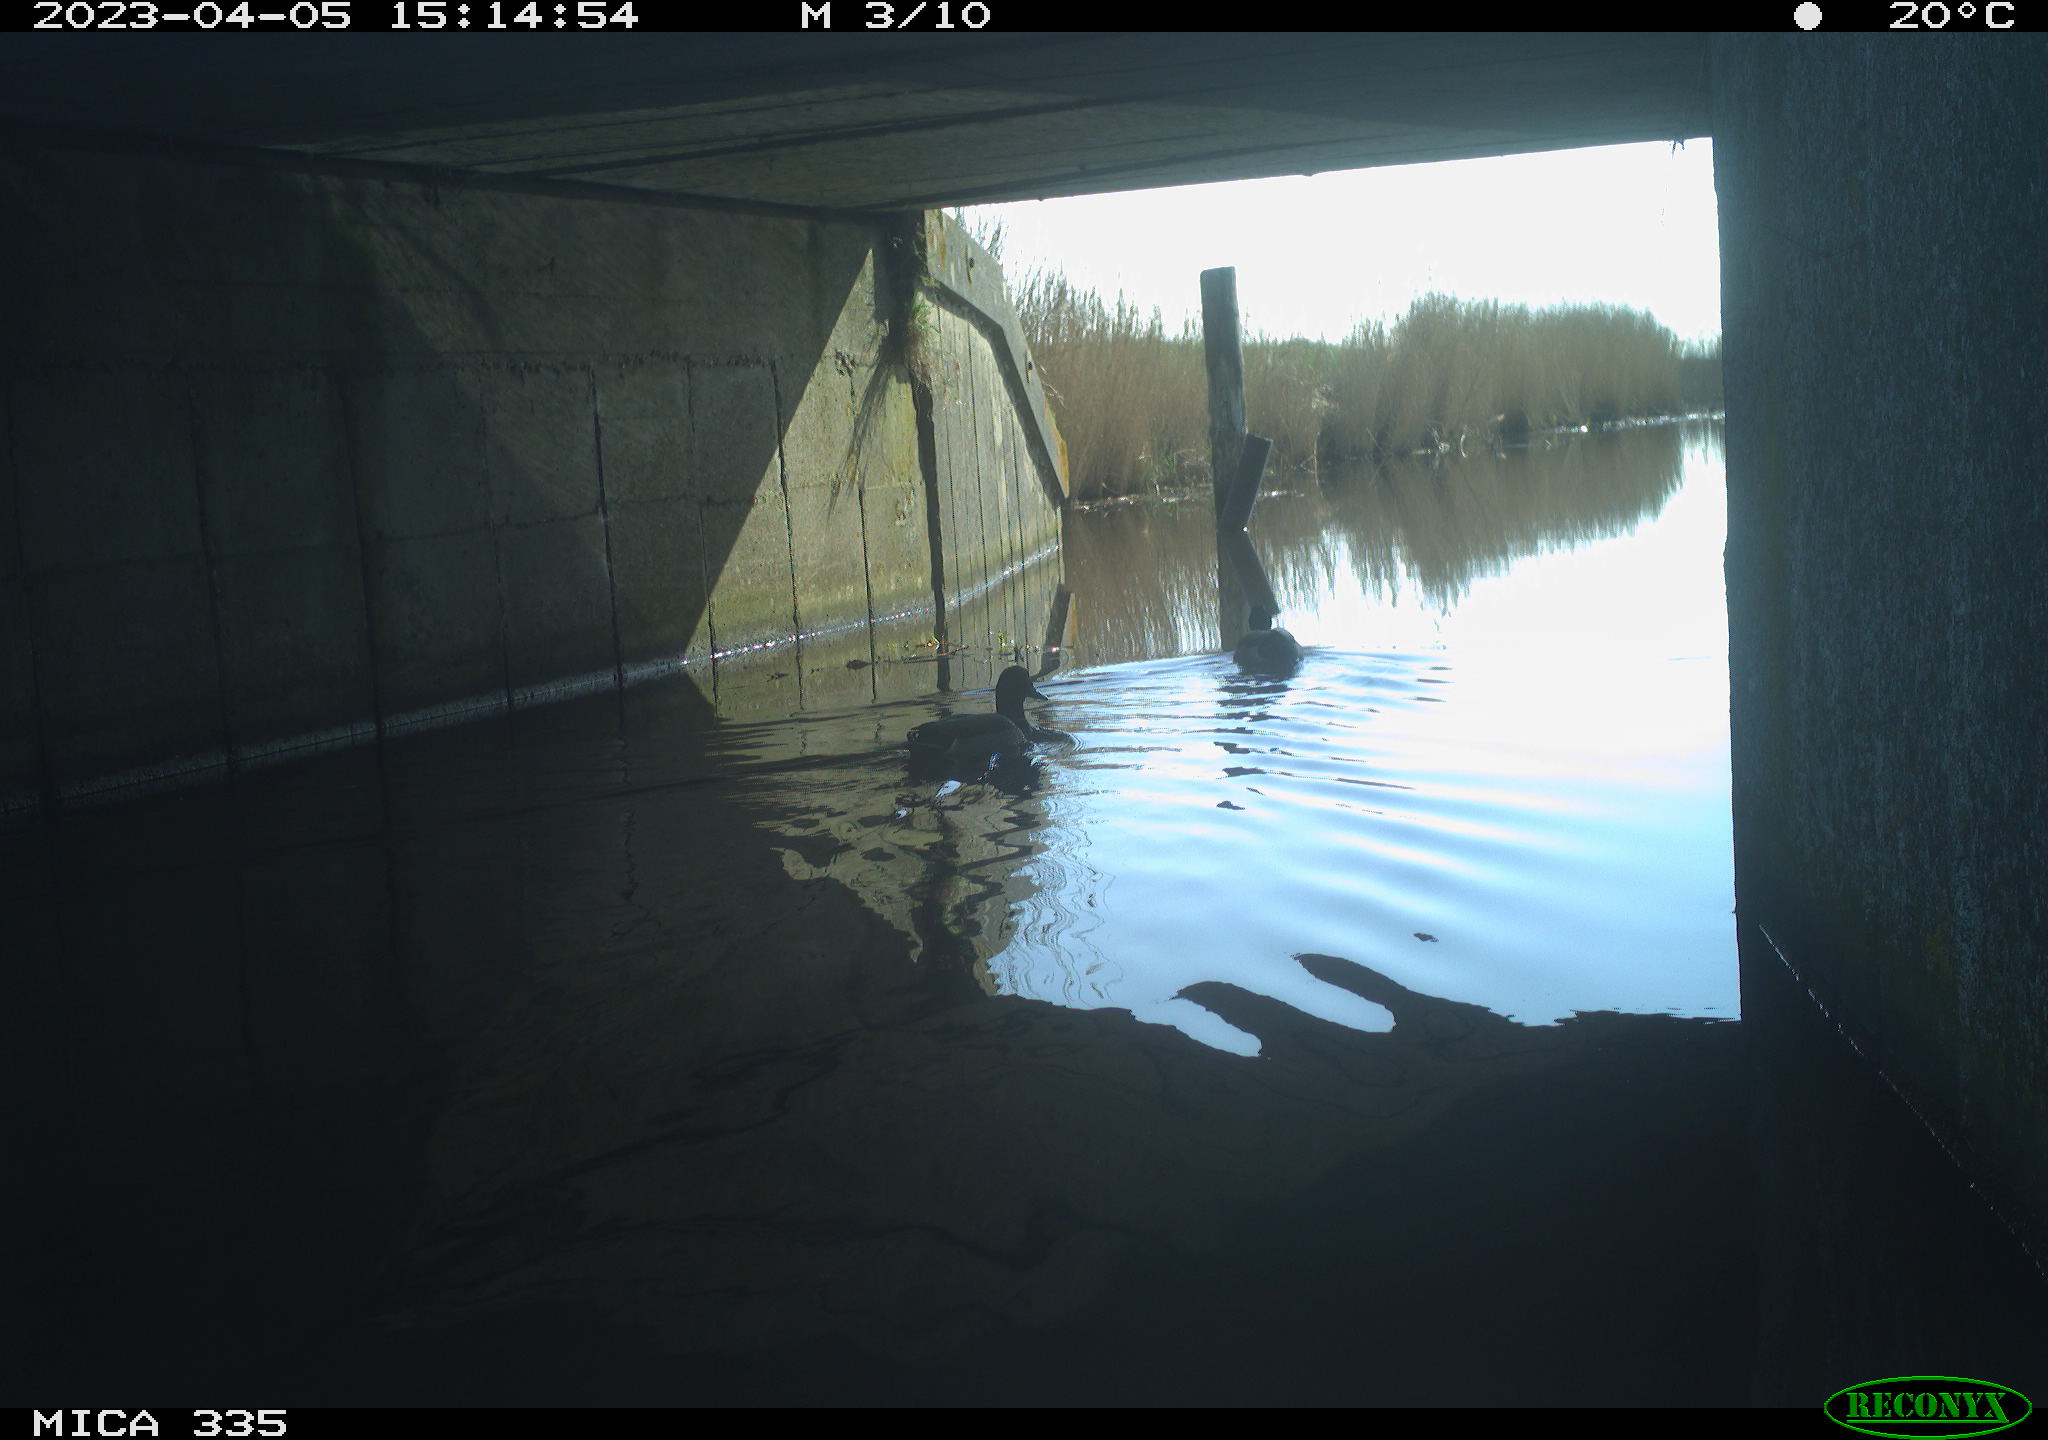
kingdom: Animalia
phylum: Chordata
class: Aves
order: Anseriformes
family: Anatidae
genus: Anas
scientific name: Anas
